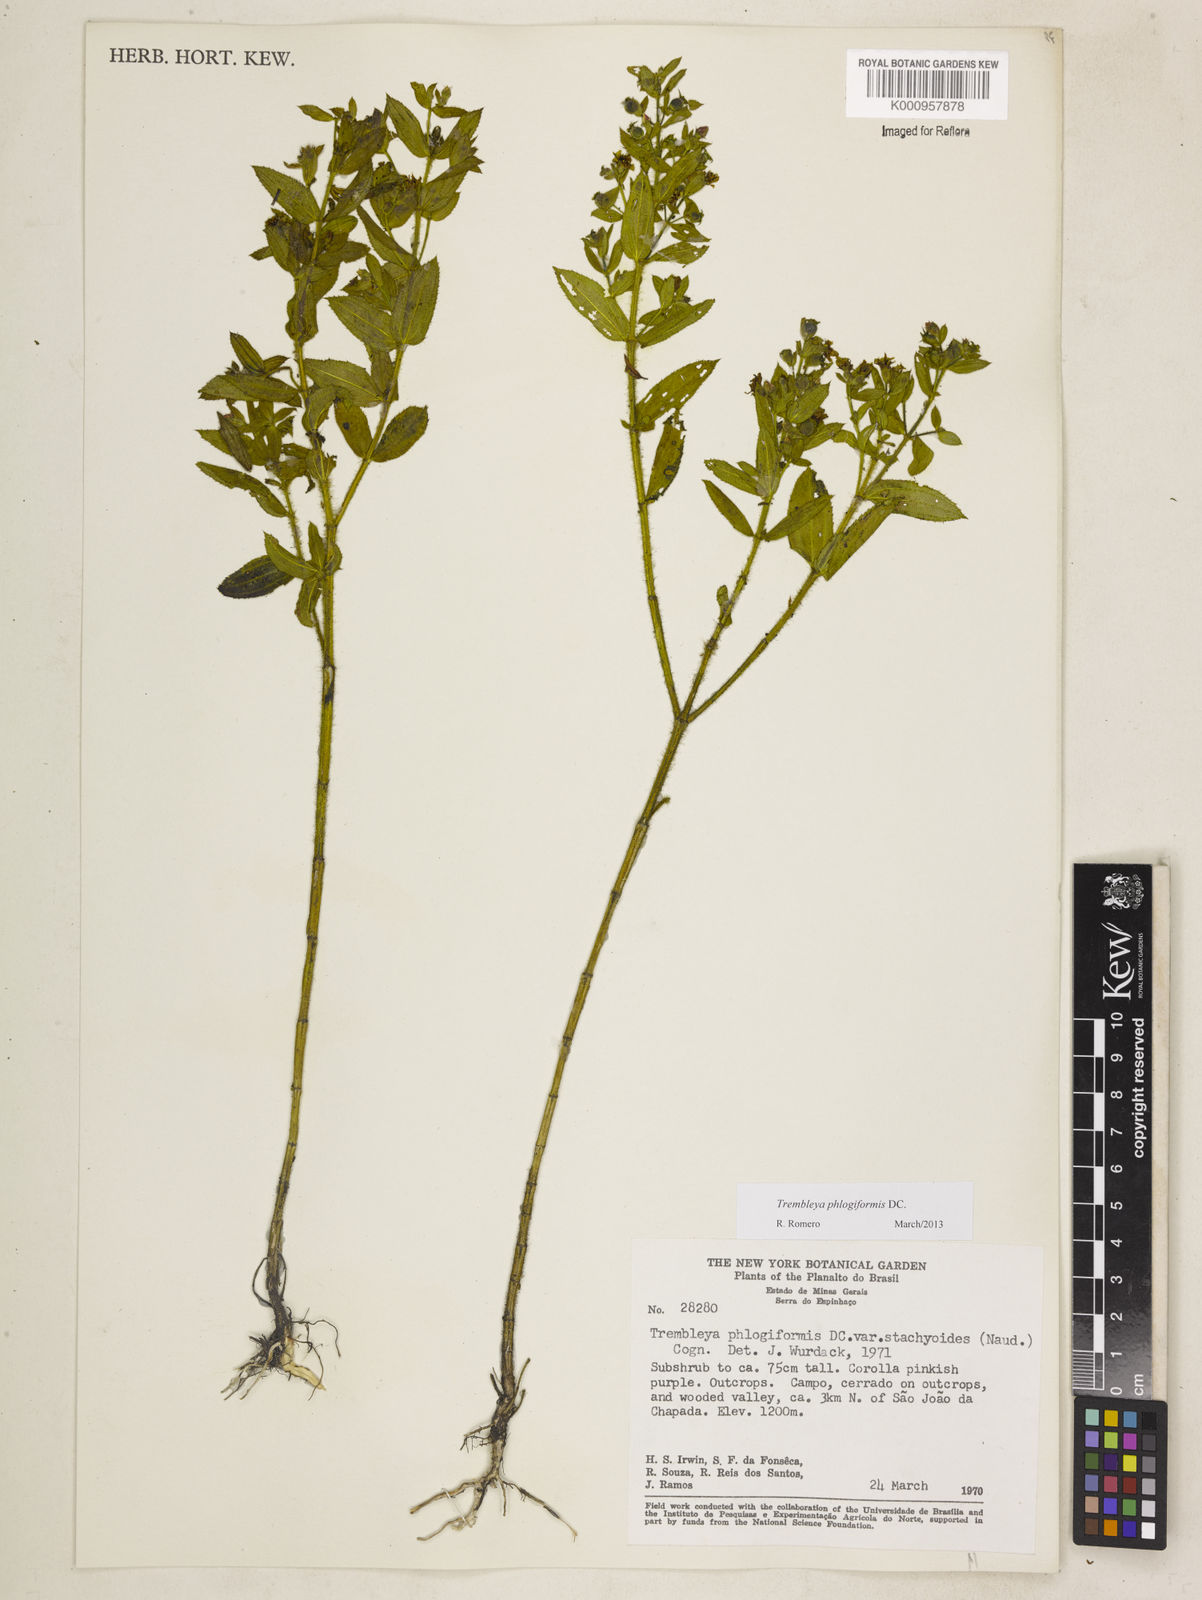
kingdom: Plantae
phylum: Tracheophyta
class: Magnoliopsida
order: Myrtales
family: Melastomataceae
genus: Microlicia
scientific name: Microlicia phlogiformis
